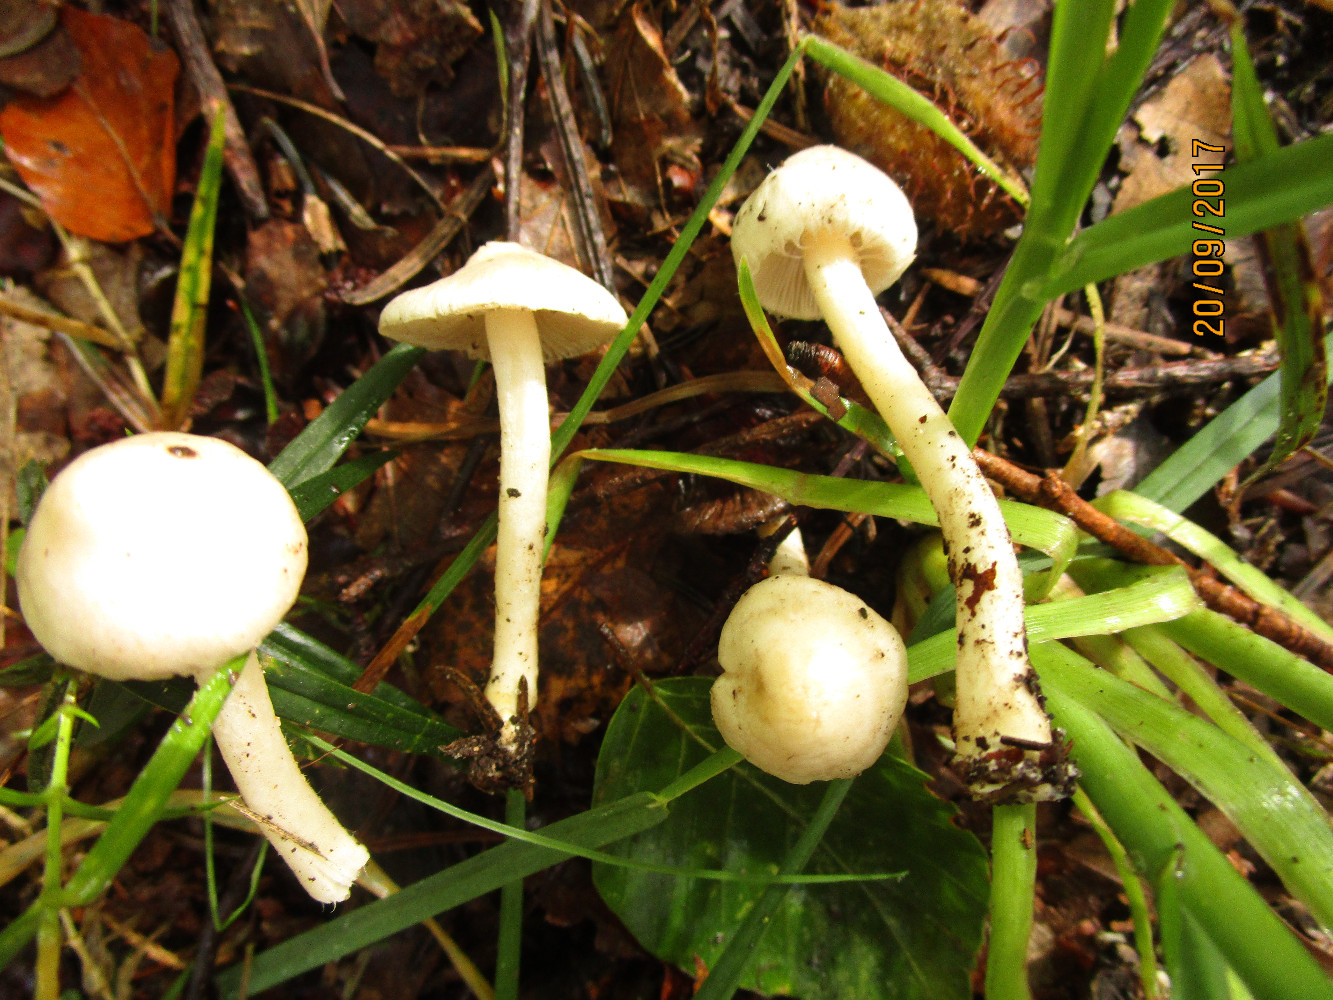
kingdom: Fungi
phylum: Basidiomycota
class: Agaricomycetes
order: Agaricales
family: Inocybaceae
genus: Inocybe
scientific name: Inocybe
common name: almindelig trævlhat
